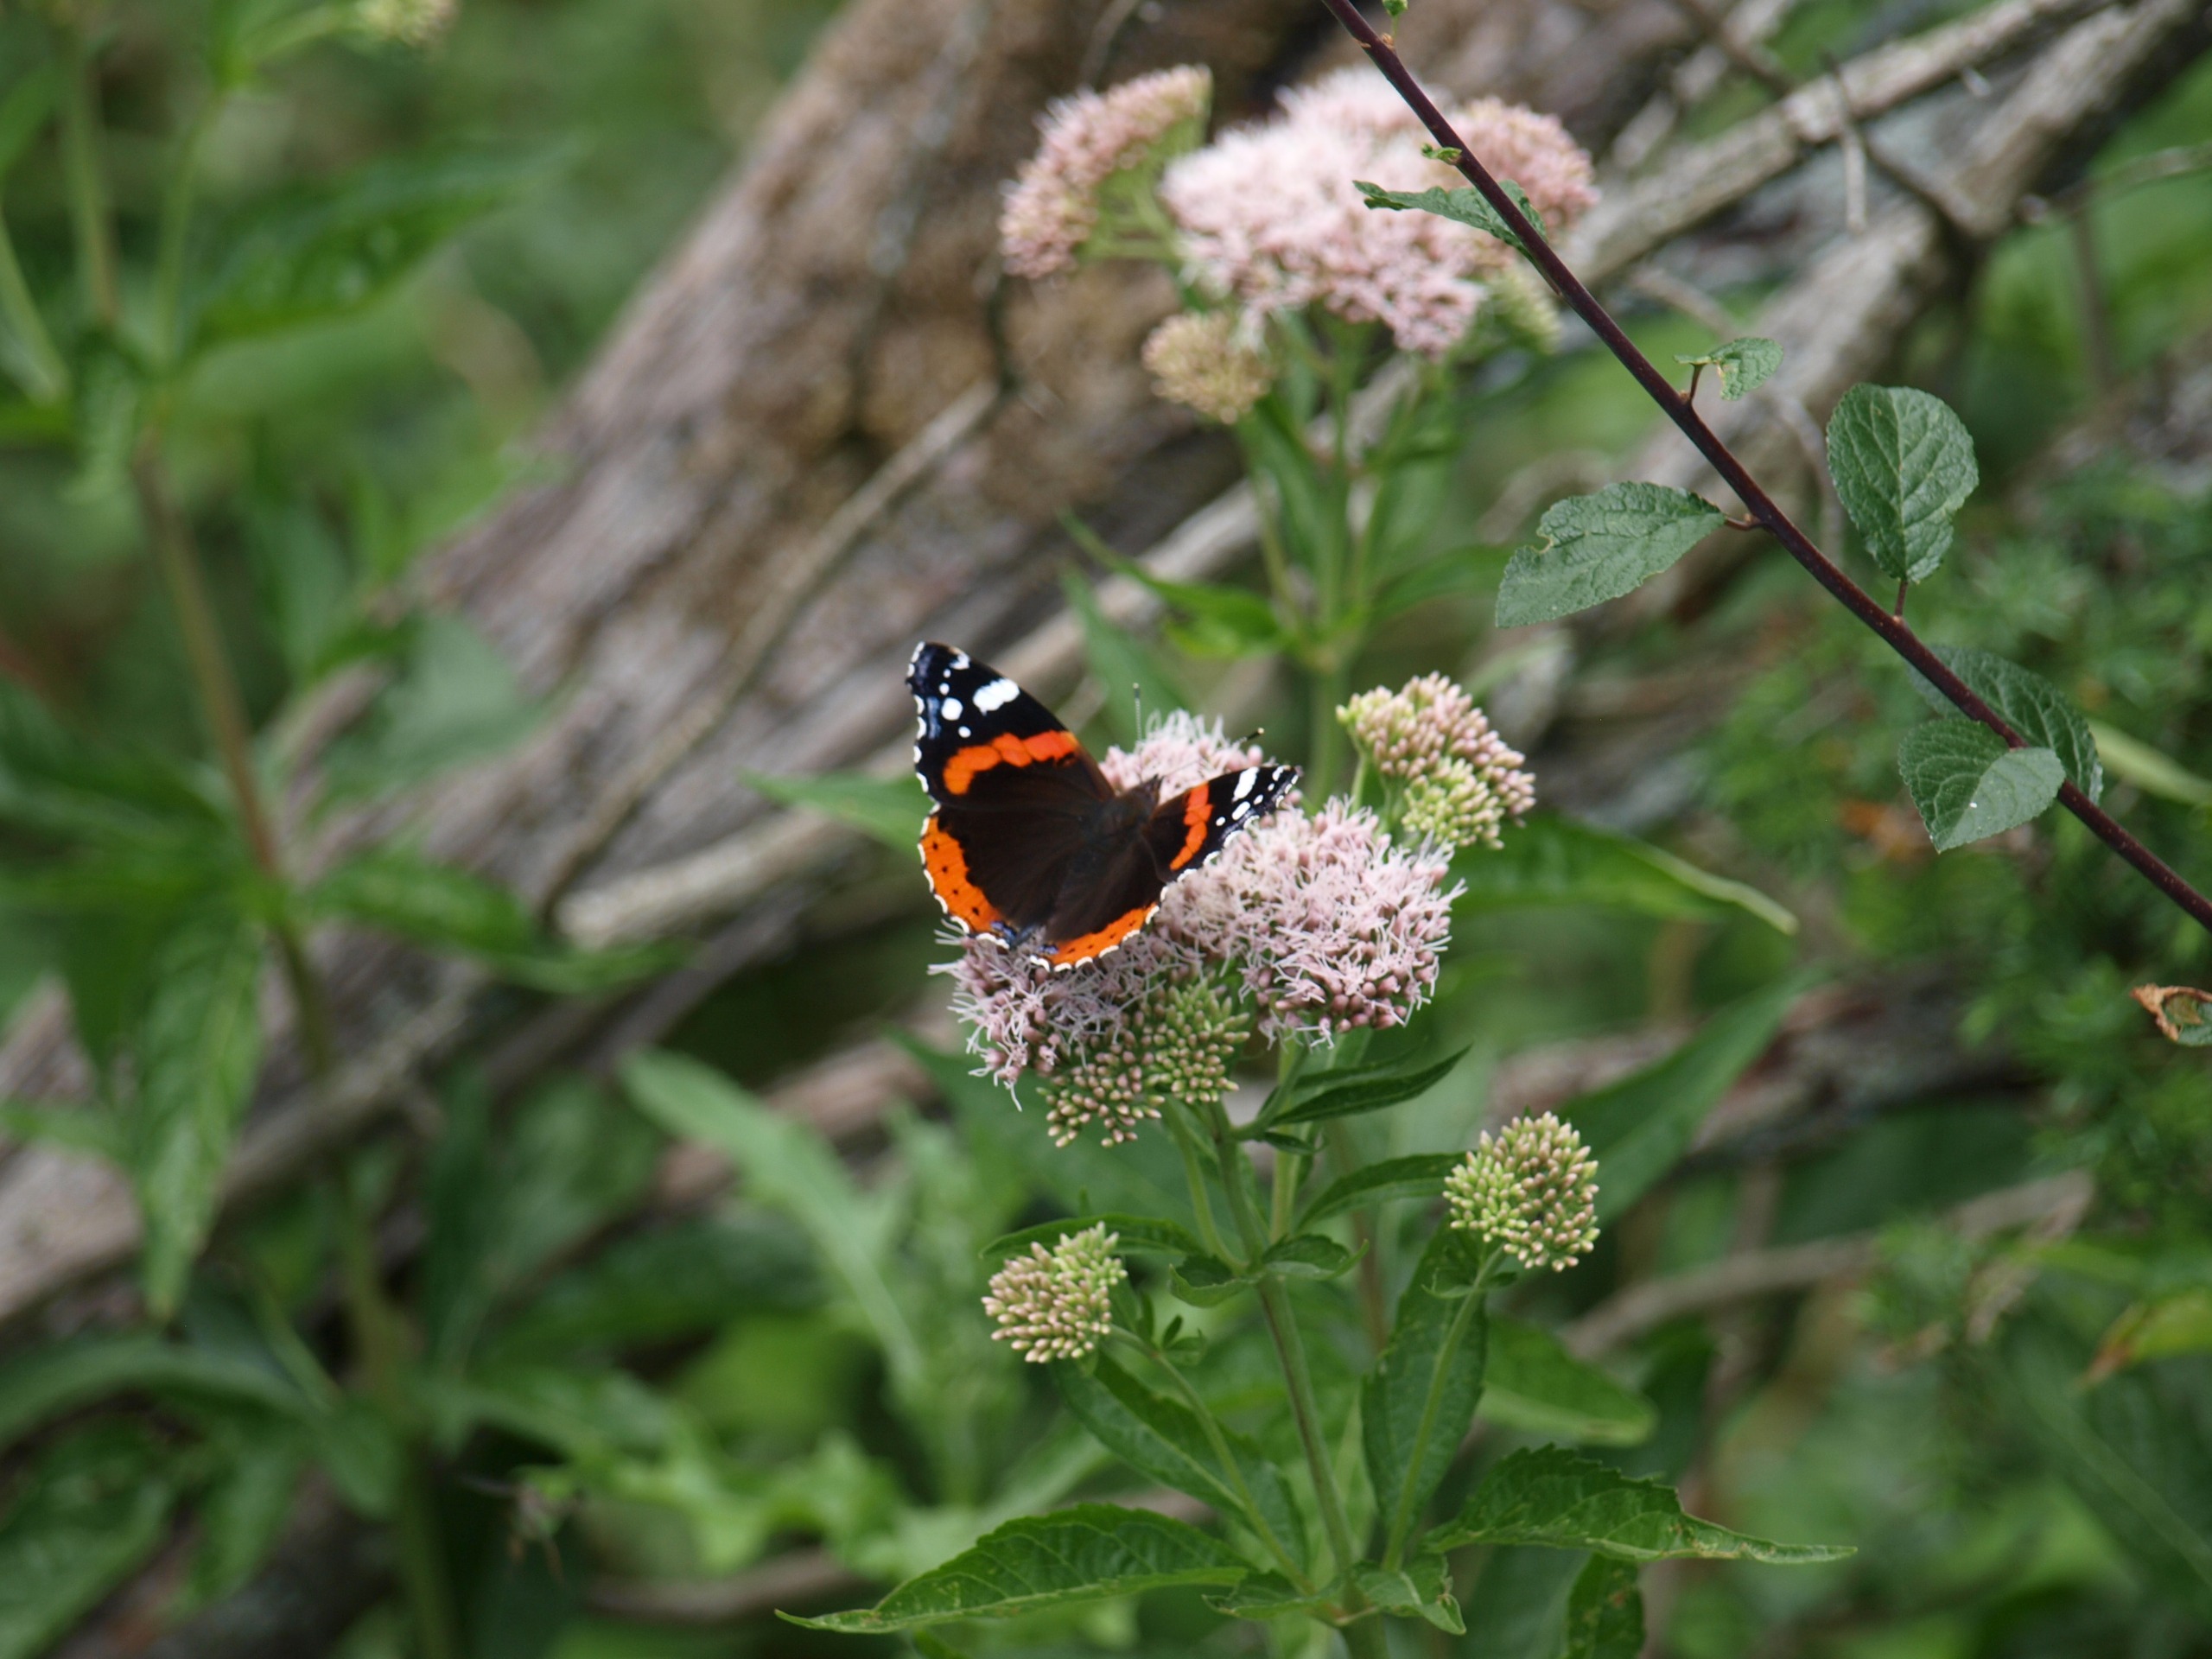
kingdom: Animalia
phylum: Arthropoda
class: Insecta
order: Lepidoptera
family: Nymphalidae
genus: Vanessa
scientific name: Vanessa atalanta
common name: Admiral
